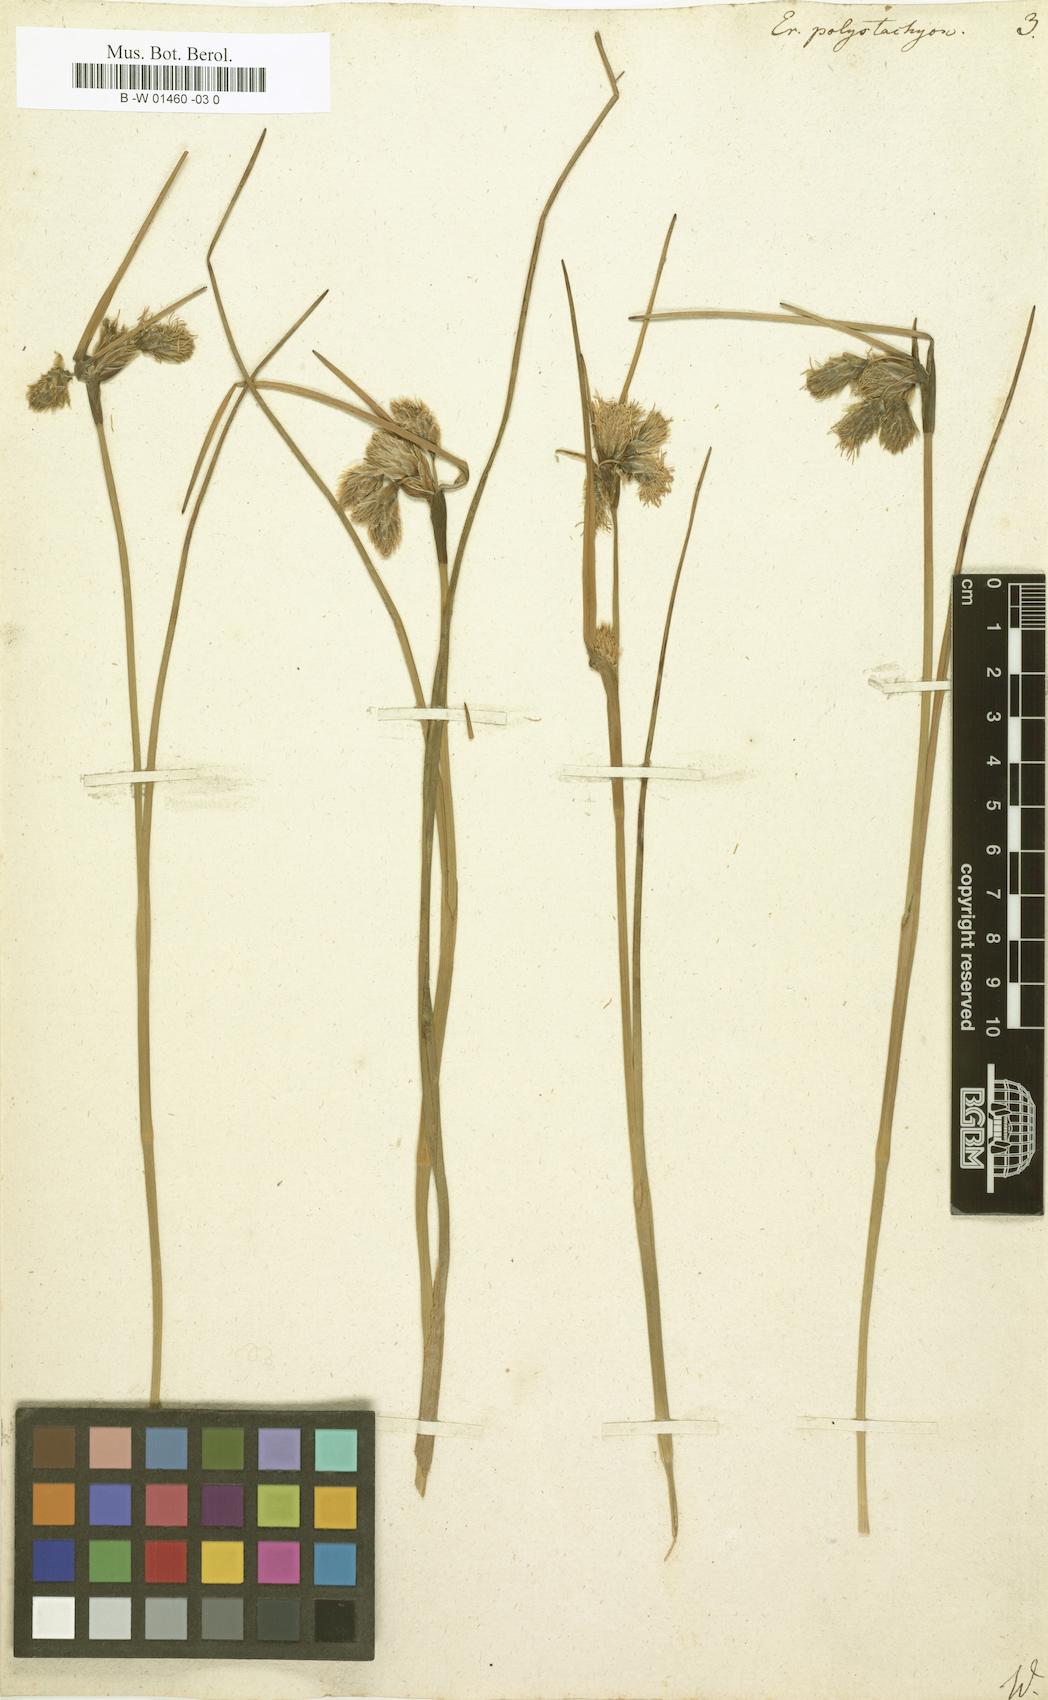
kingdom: Plantae
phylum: Tracheophyta
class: Liliopsida
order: Poales
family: Cyperaceae
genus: Eriophorum
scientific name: Eriophorum angustifolium
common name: Common cottongrass
